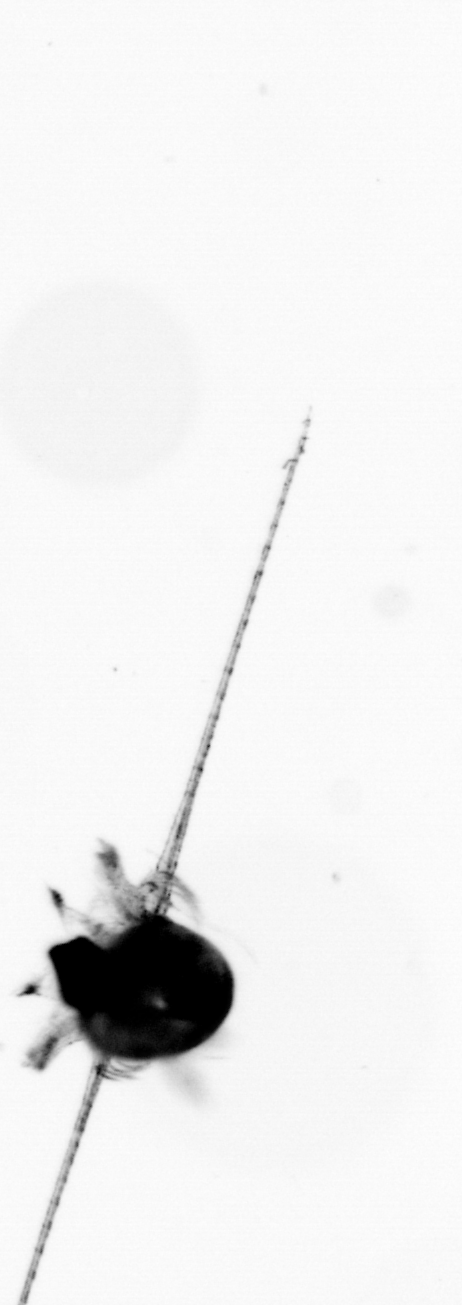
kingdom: Animalia
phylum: Arthropoda
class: Copepoda
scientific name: Copepoda
